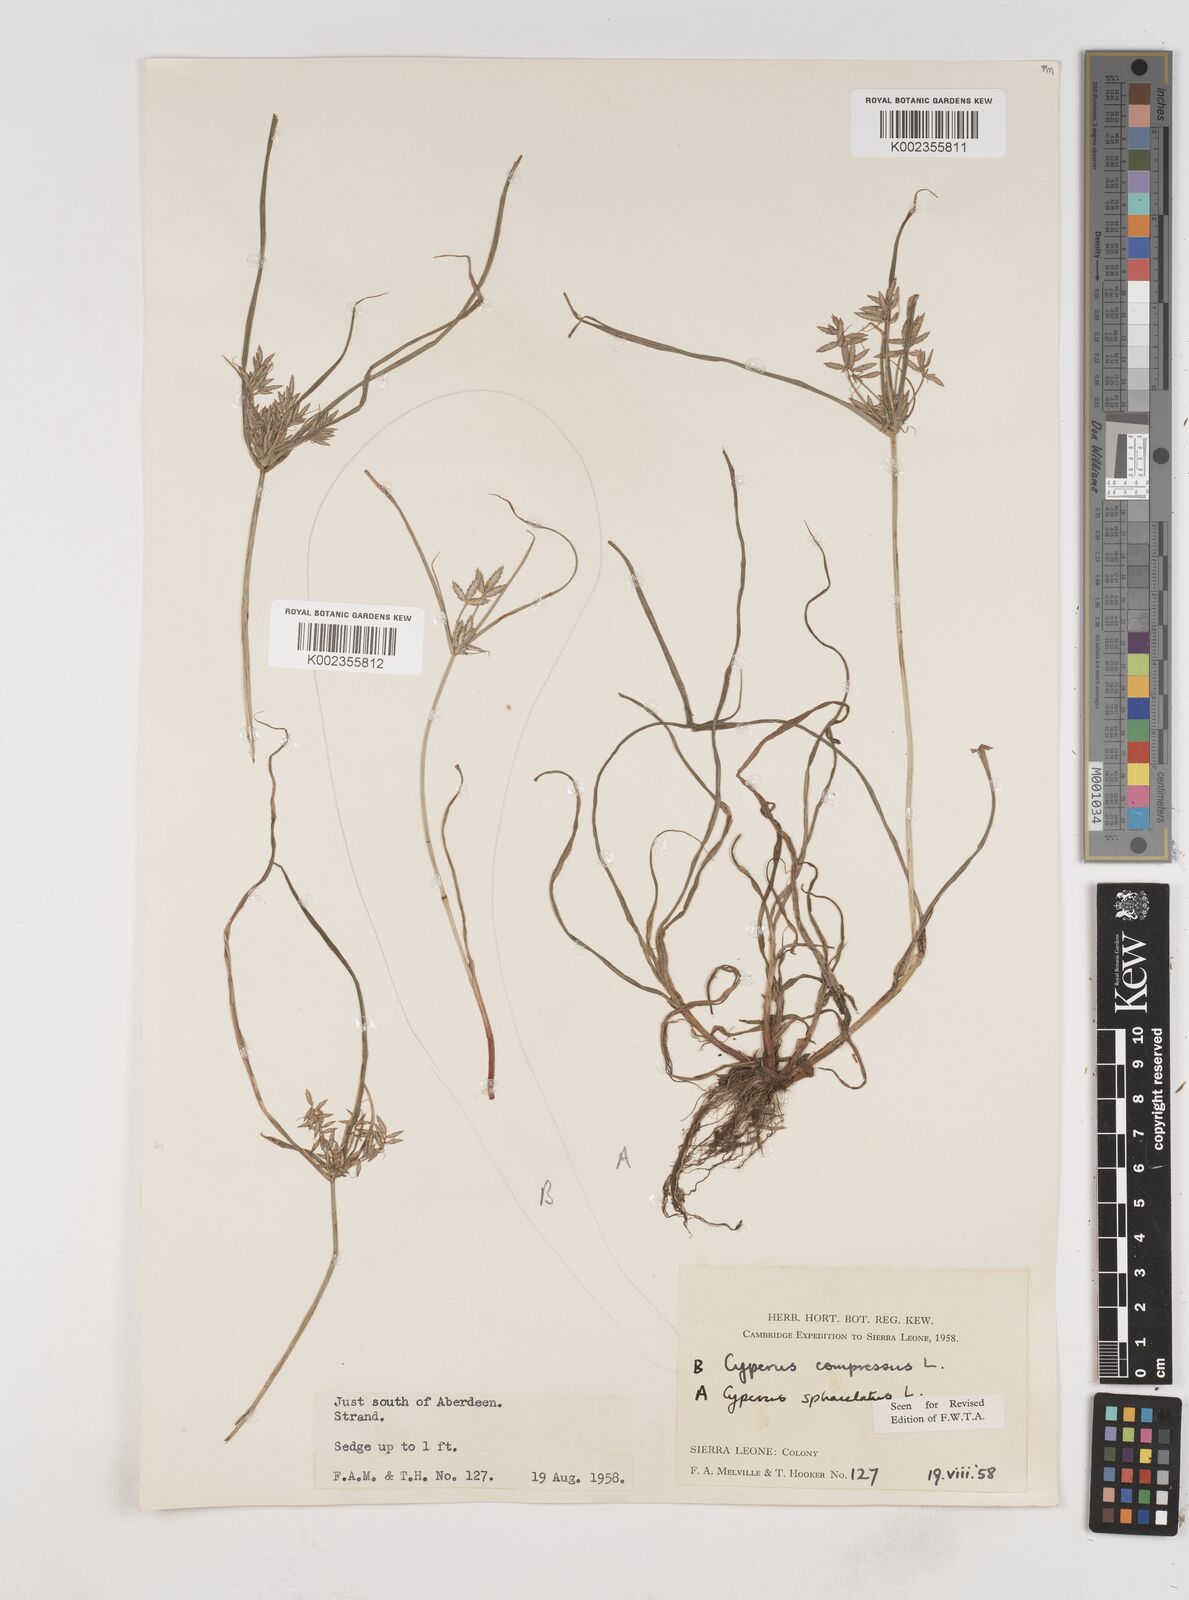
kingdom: Plantae
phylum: Tracheophyta
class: Liliopsida
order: Poales
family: Cyperaceae
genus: Cyperus
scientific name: Cyperus sphacelatus
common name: Roadside flatsedge
